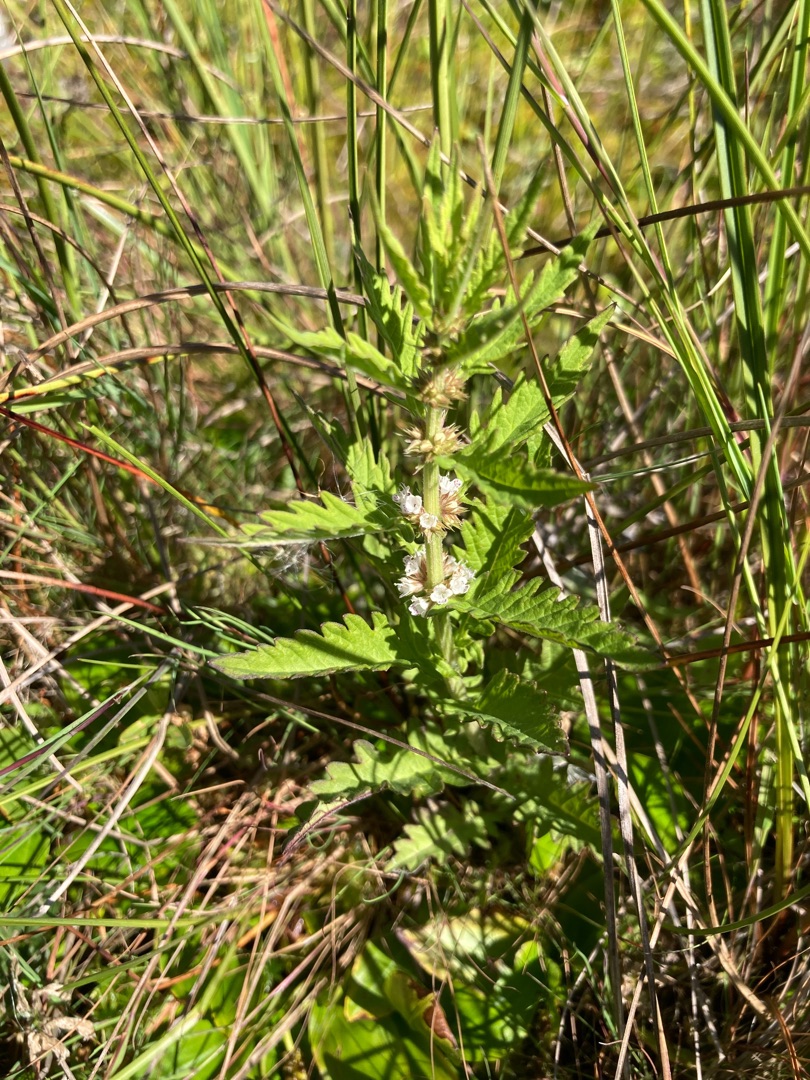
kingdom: Plantae
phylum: Tracheophyta
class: Magnoliopsida
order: Lamiales
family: Lamiaceae
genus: Lycopus
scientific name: Lycopus europaeus
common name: Sværtevæld
